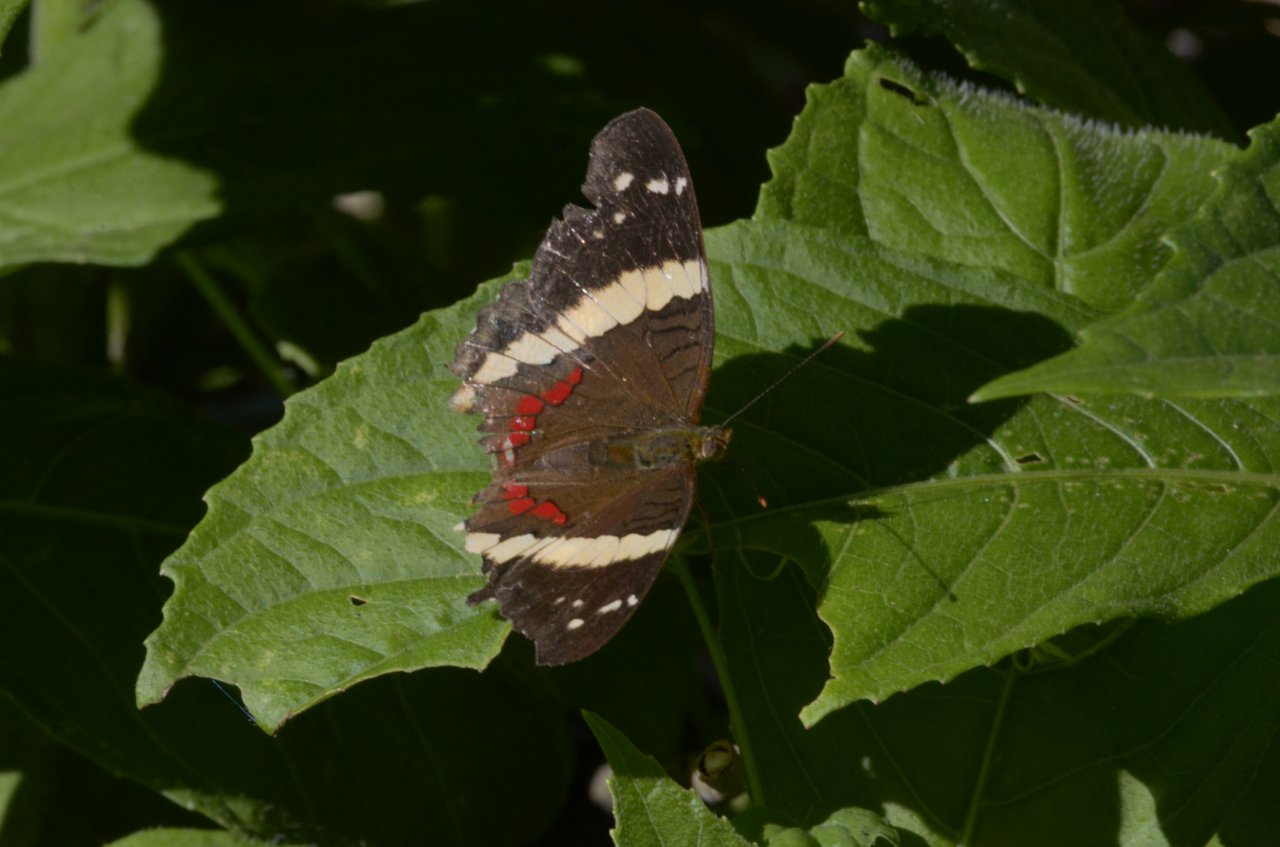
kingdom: Animalia
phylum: Arthropoda
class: Insecta
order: Lepidoptera
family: Nymphalidae
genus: Anartia
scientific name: Anartia fatima
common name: Banded Peacock
